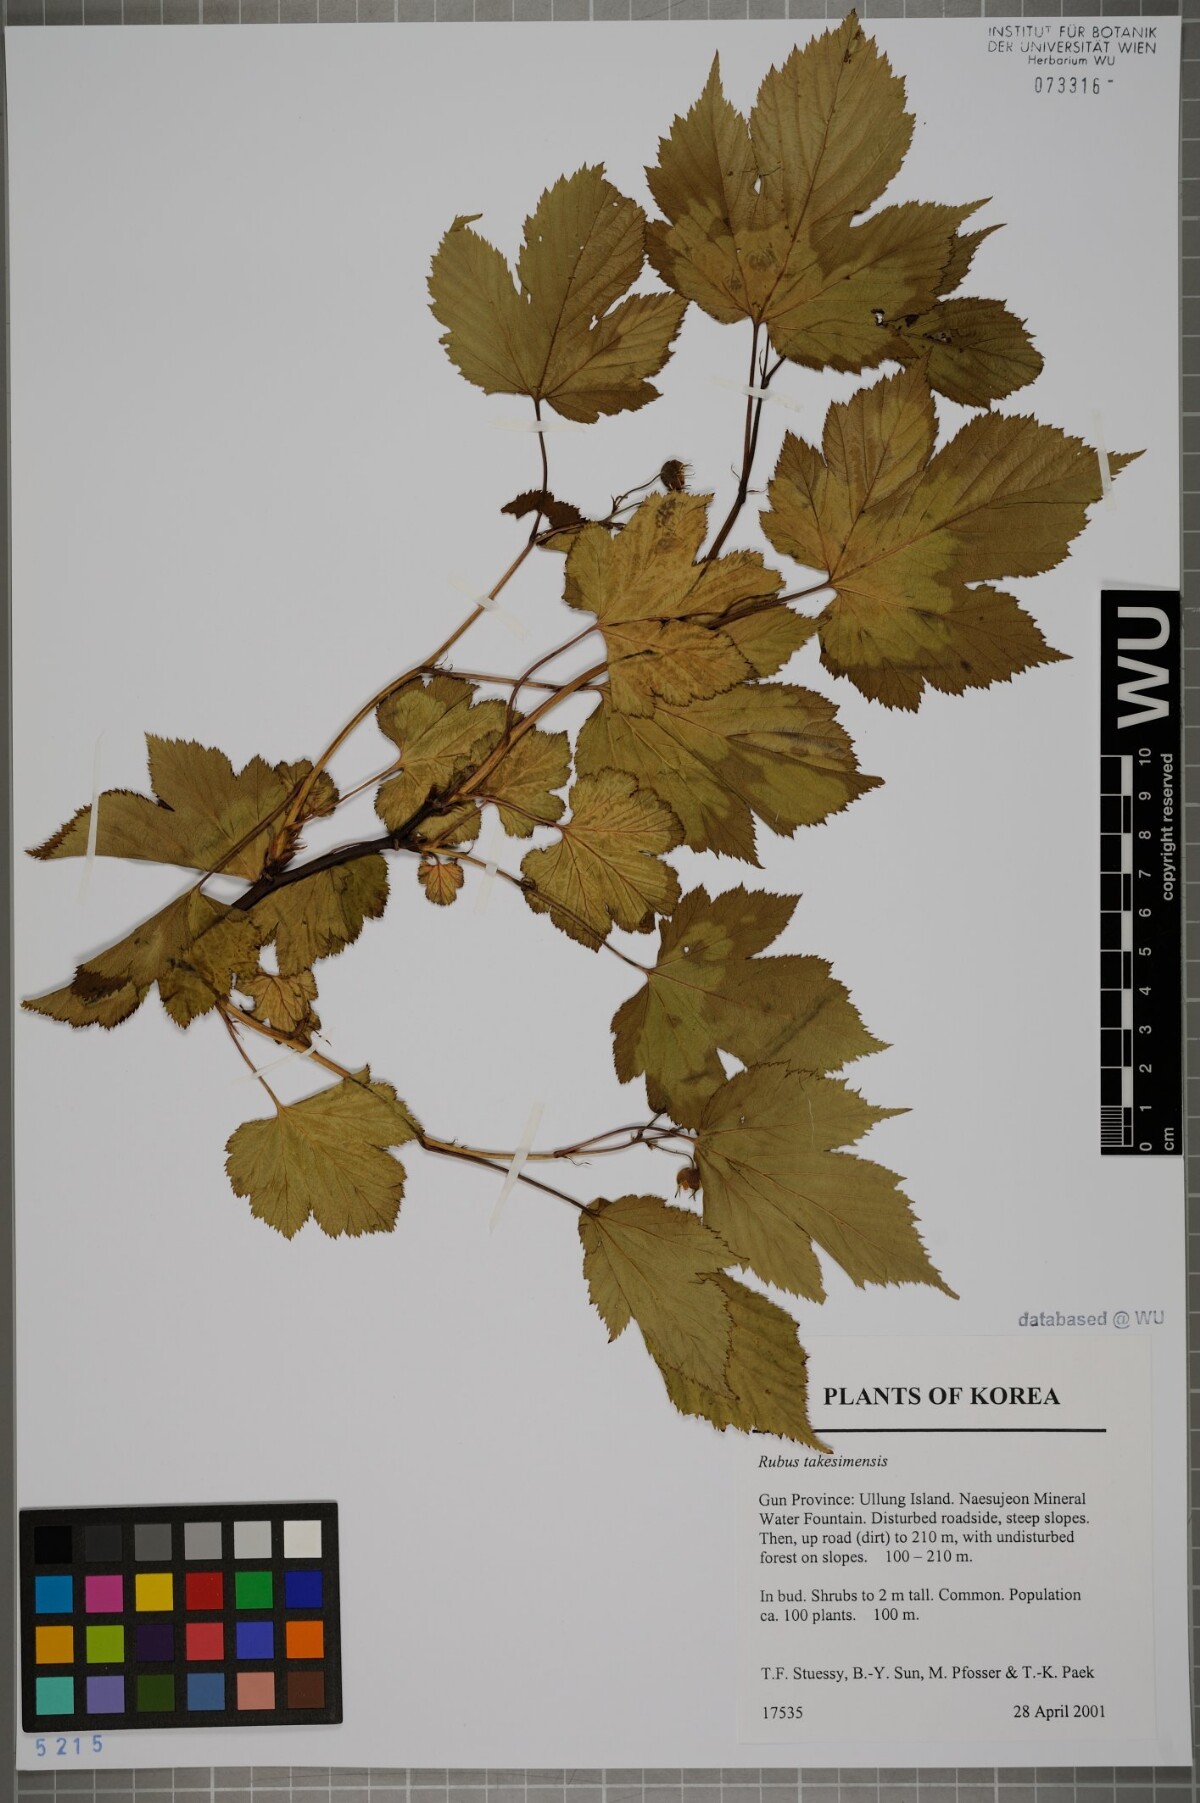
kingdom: Plantae
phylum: Tracheophyta
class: Magnoliopsida
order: Rosales
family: Rosaceae
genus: Rubus
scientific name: Rubus crataegifolius
